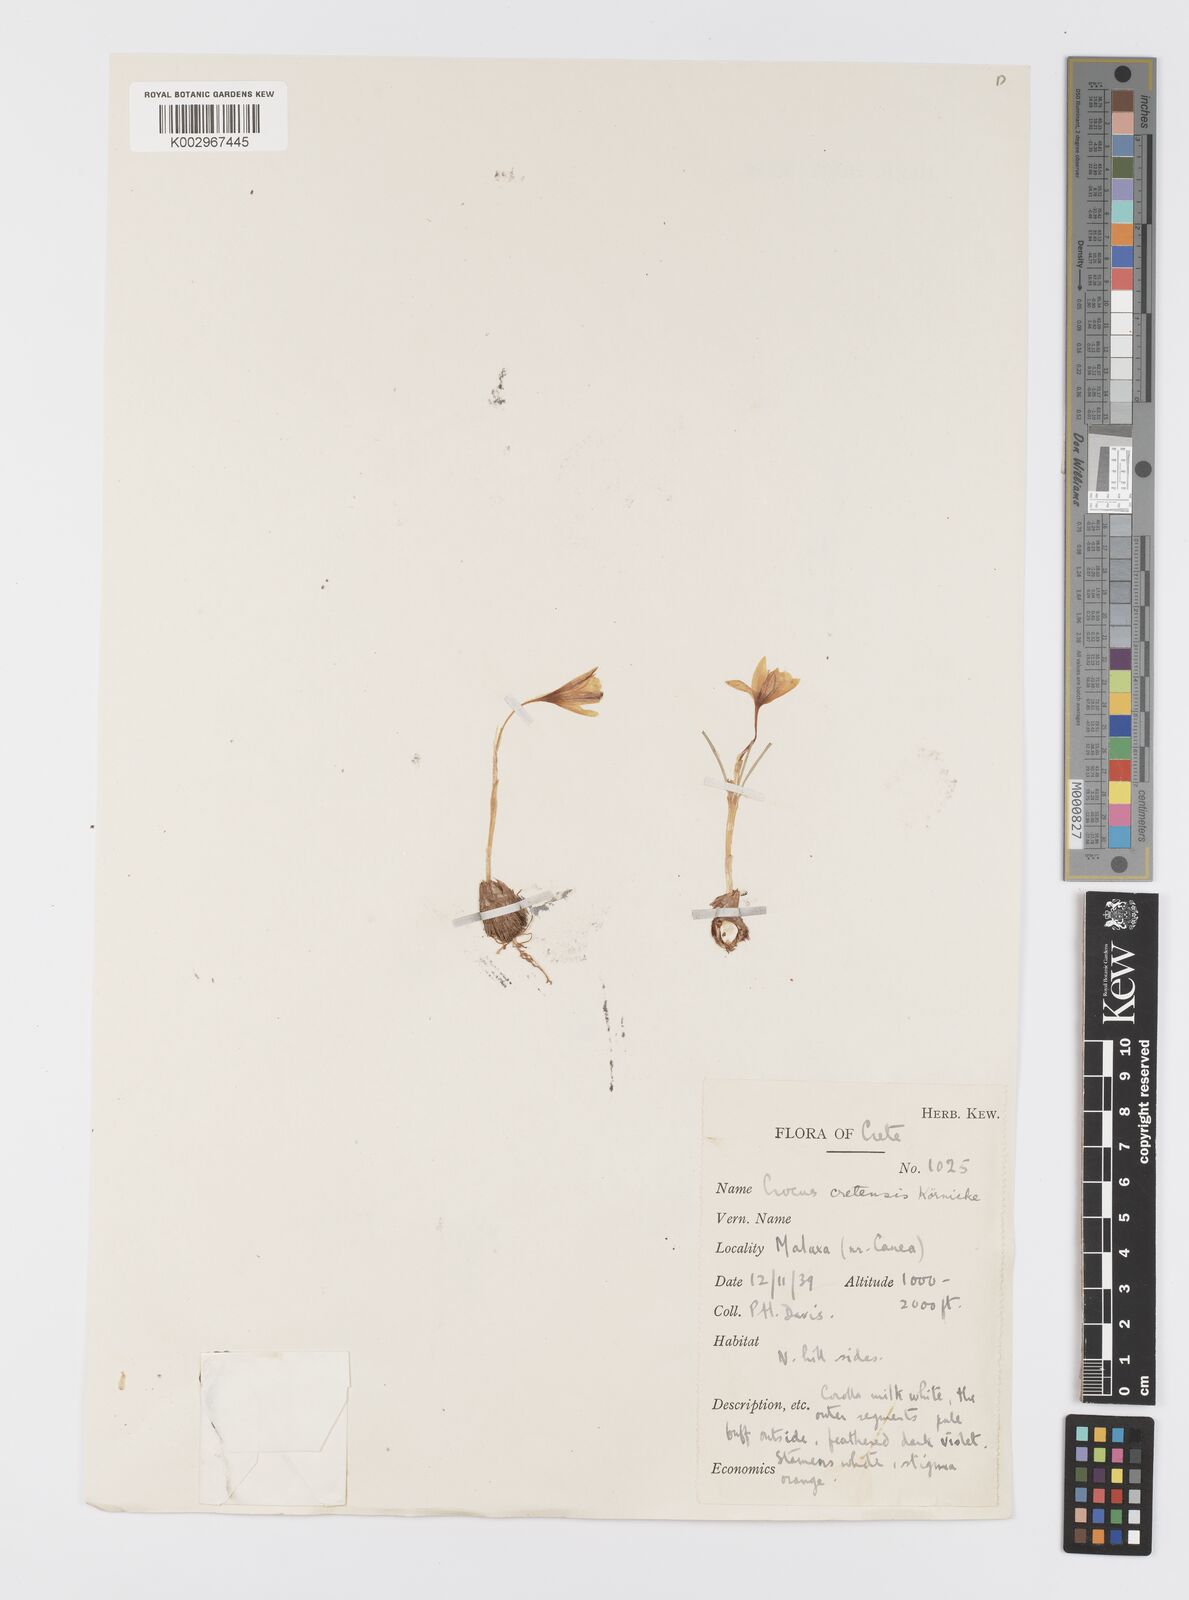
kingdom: Plantae
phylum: Tracheophyta
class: Liliopsida
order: Asparagales
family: Iridaceae
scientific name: Iridaceae
